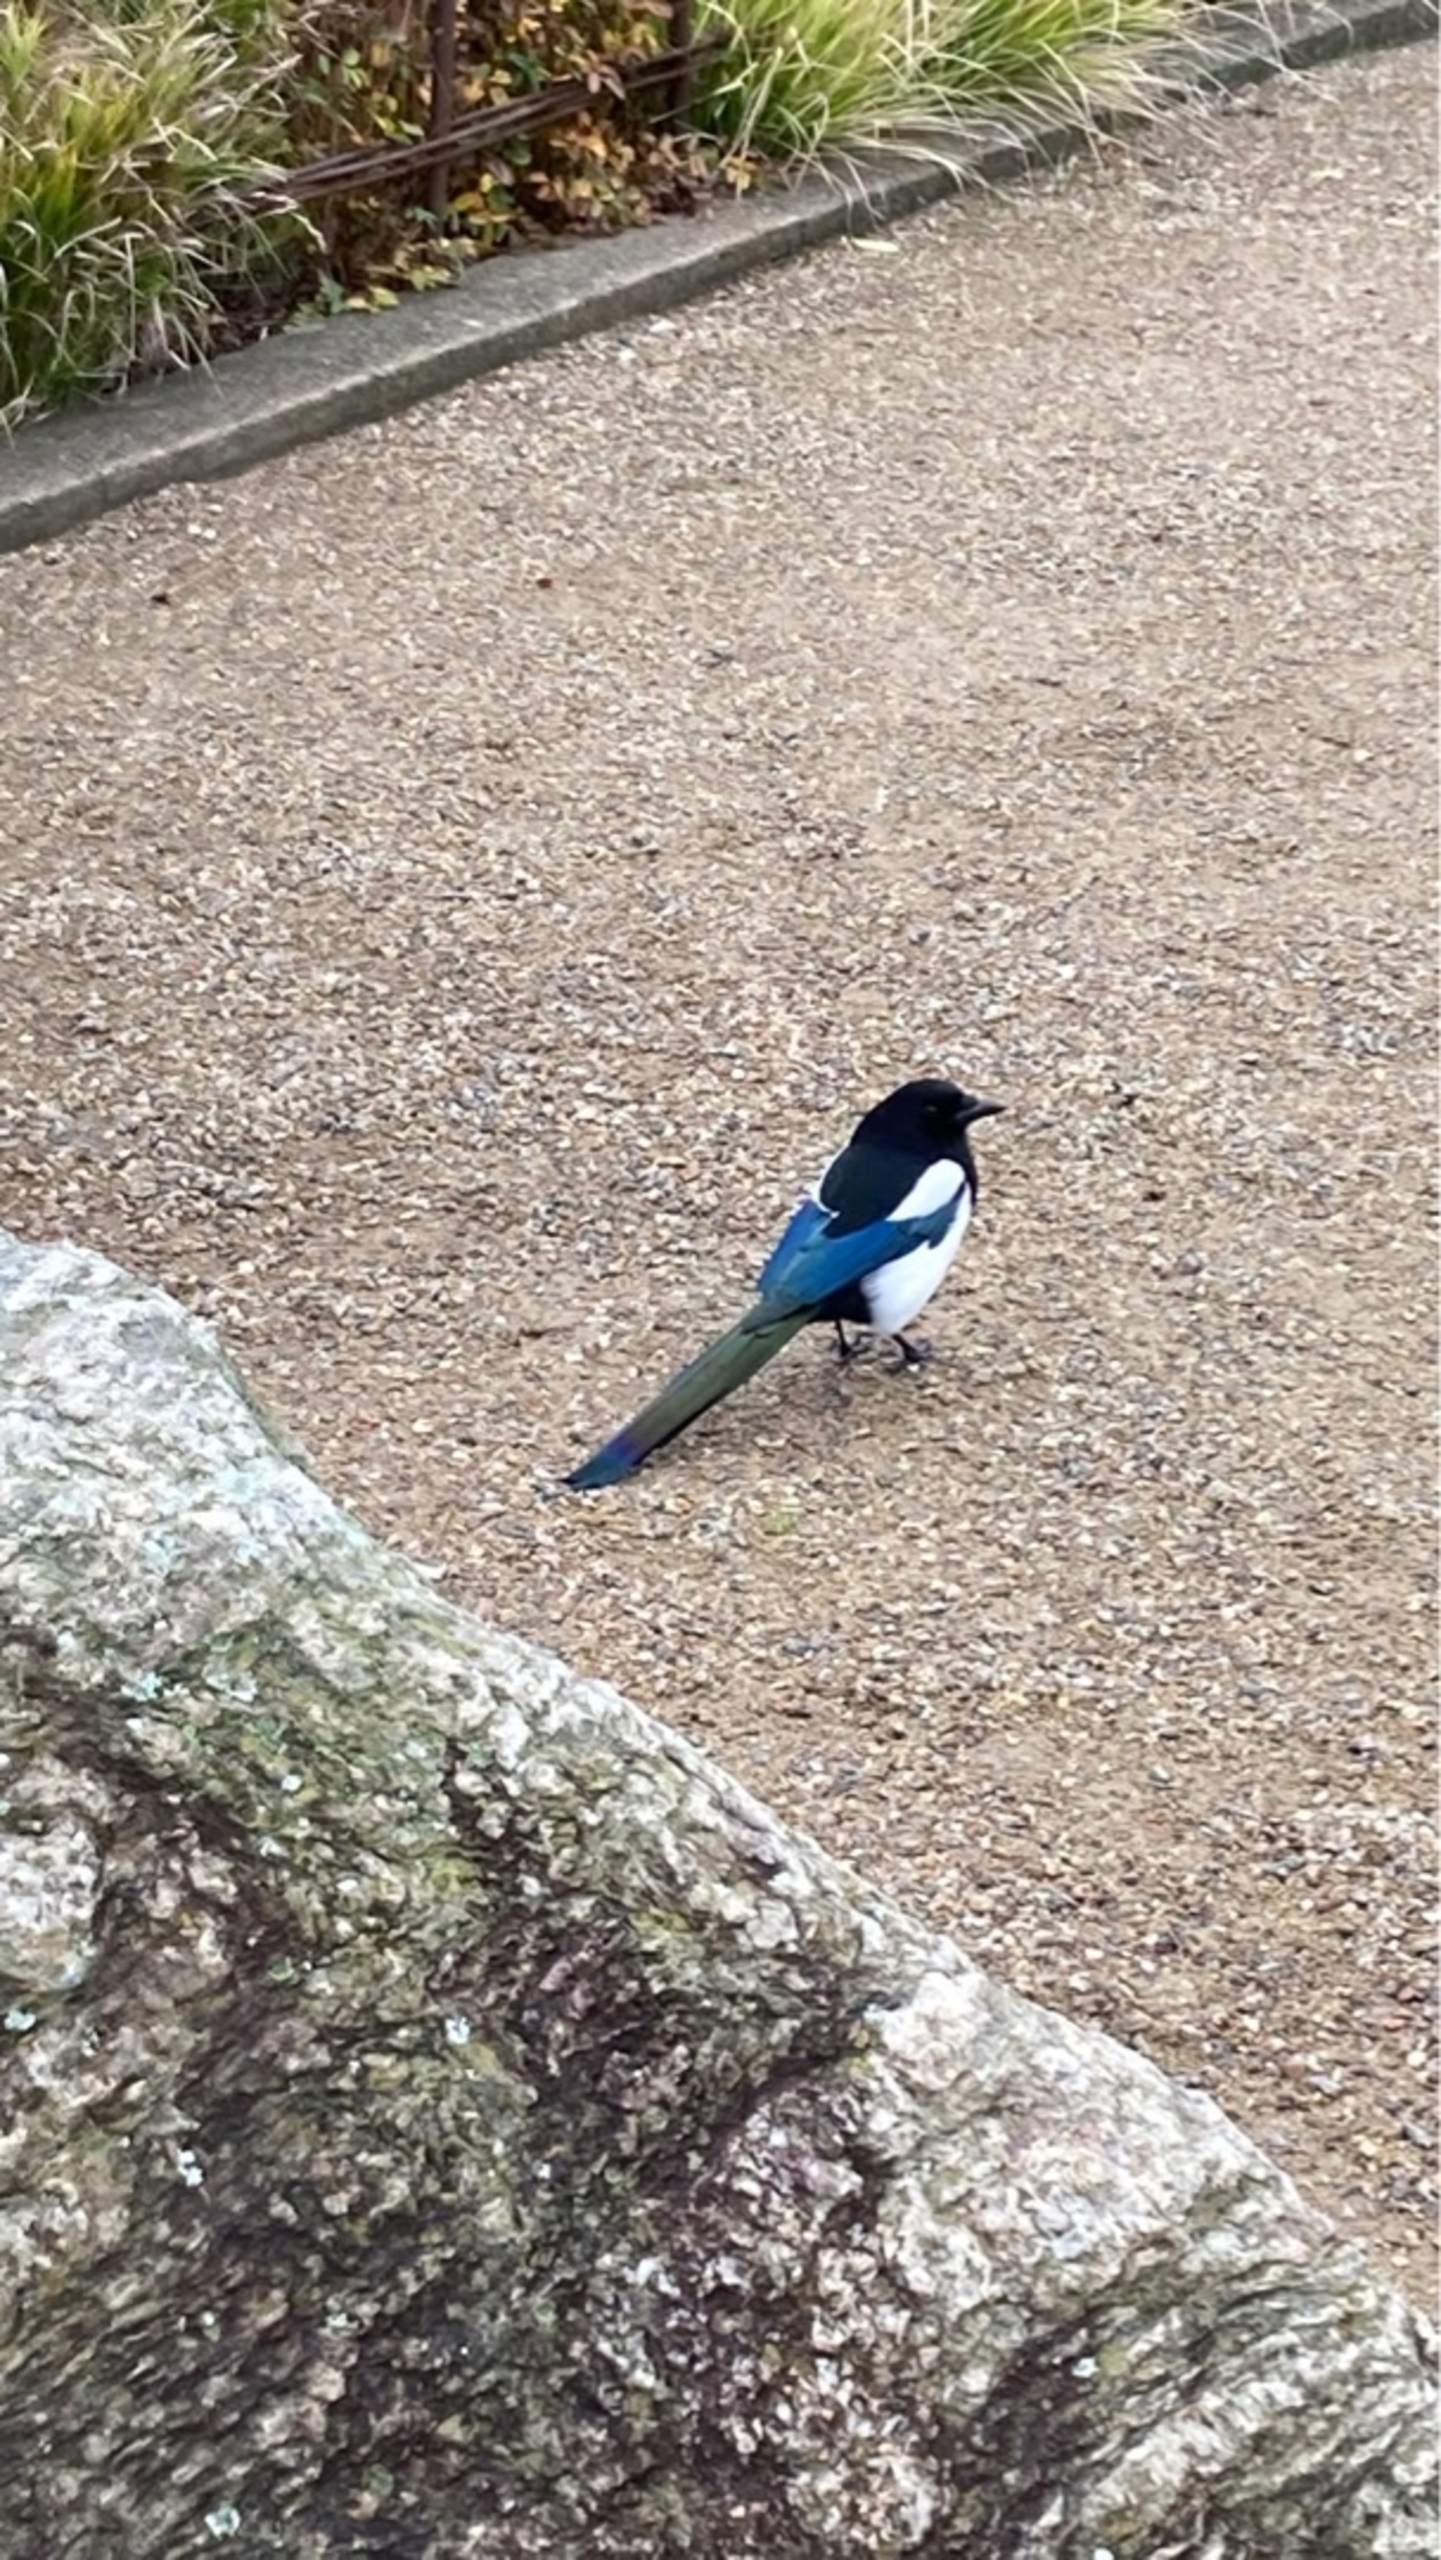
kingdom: Animalia
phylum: Chordata
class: Aves
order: Passeriformes
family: Corvidae
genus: Pica
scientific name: Pica pica
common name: Husskade
